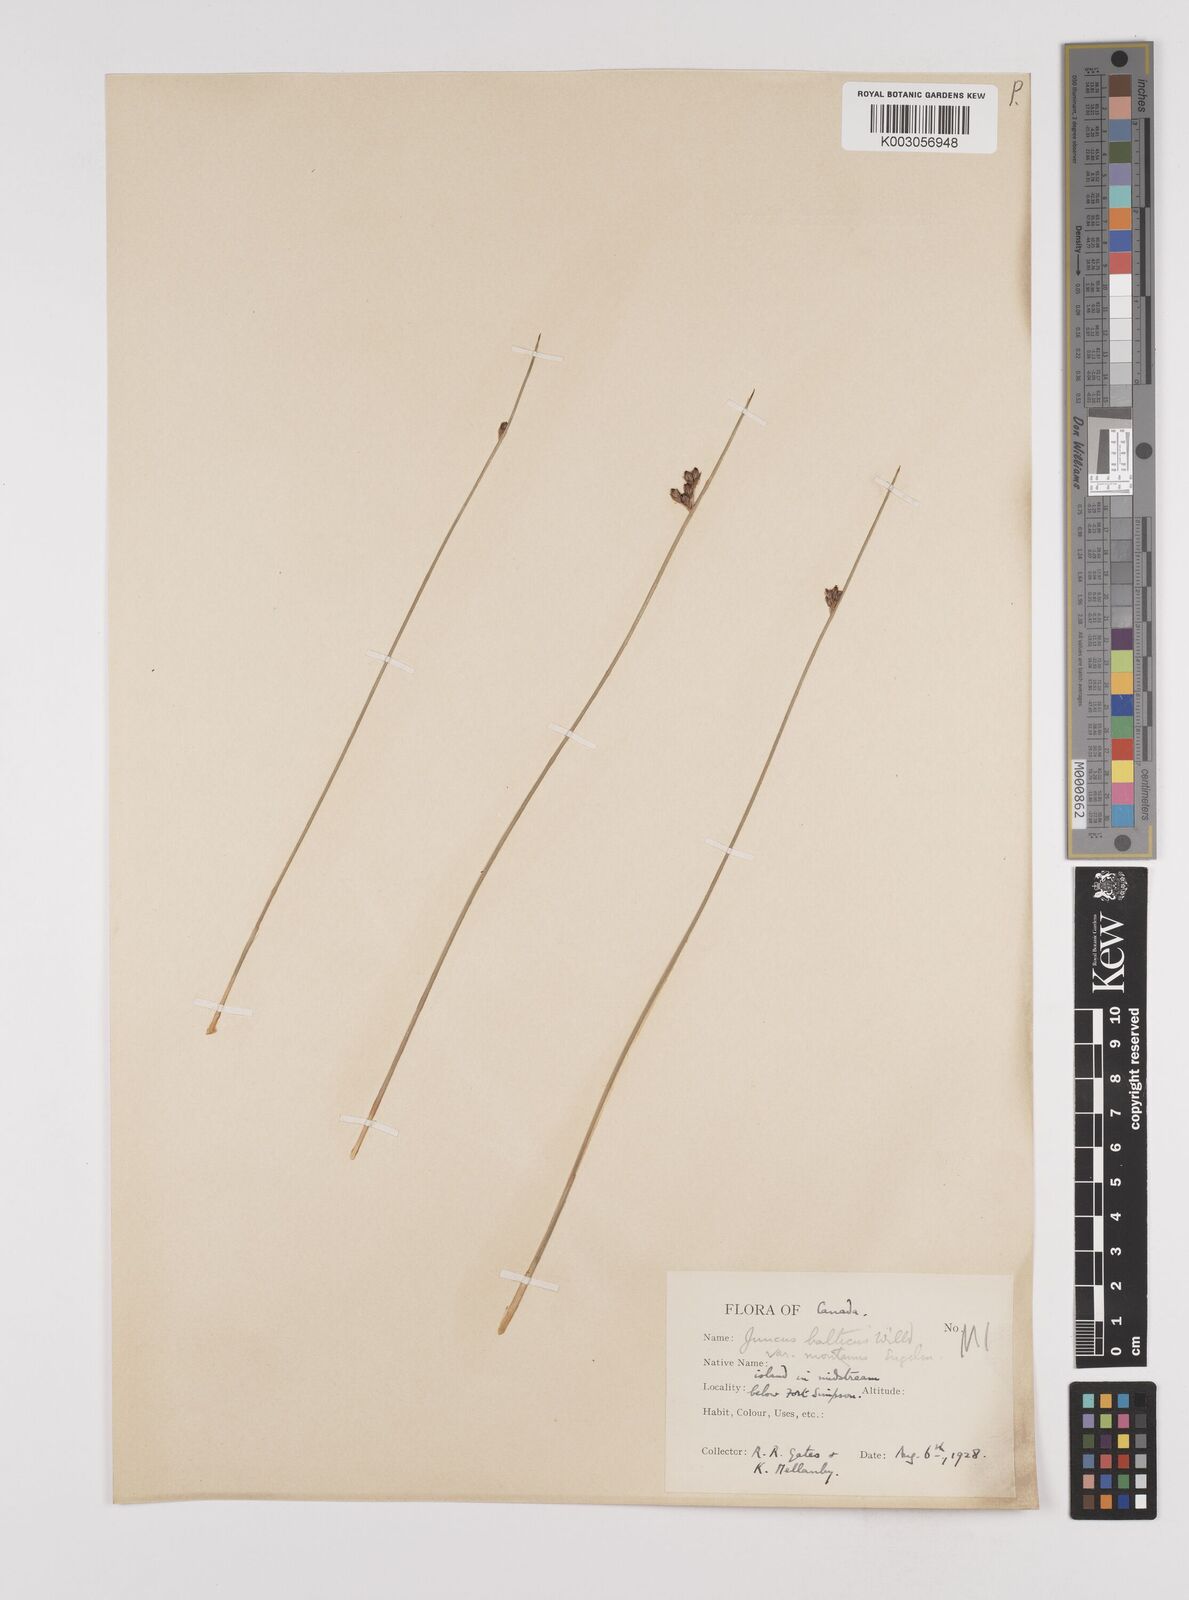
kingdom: Plantae
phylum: Tracheophyta
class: Liliopsida
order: Poales
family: Juncaceae
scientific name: Juncaceae
